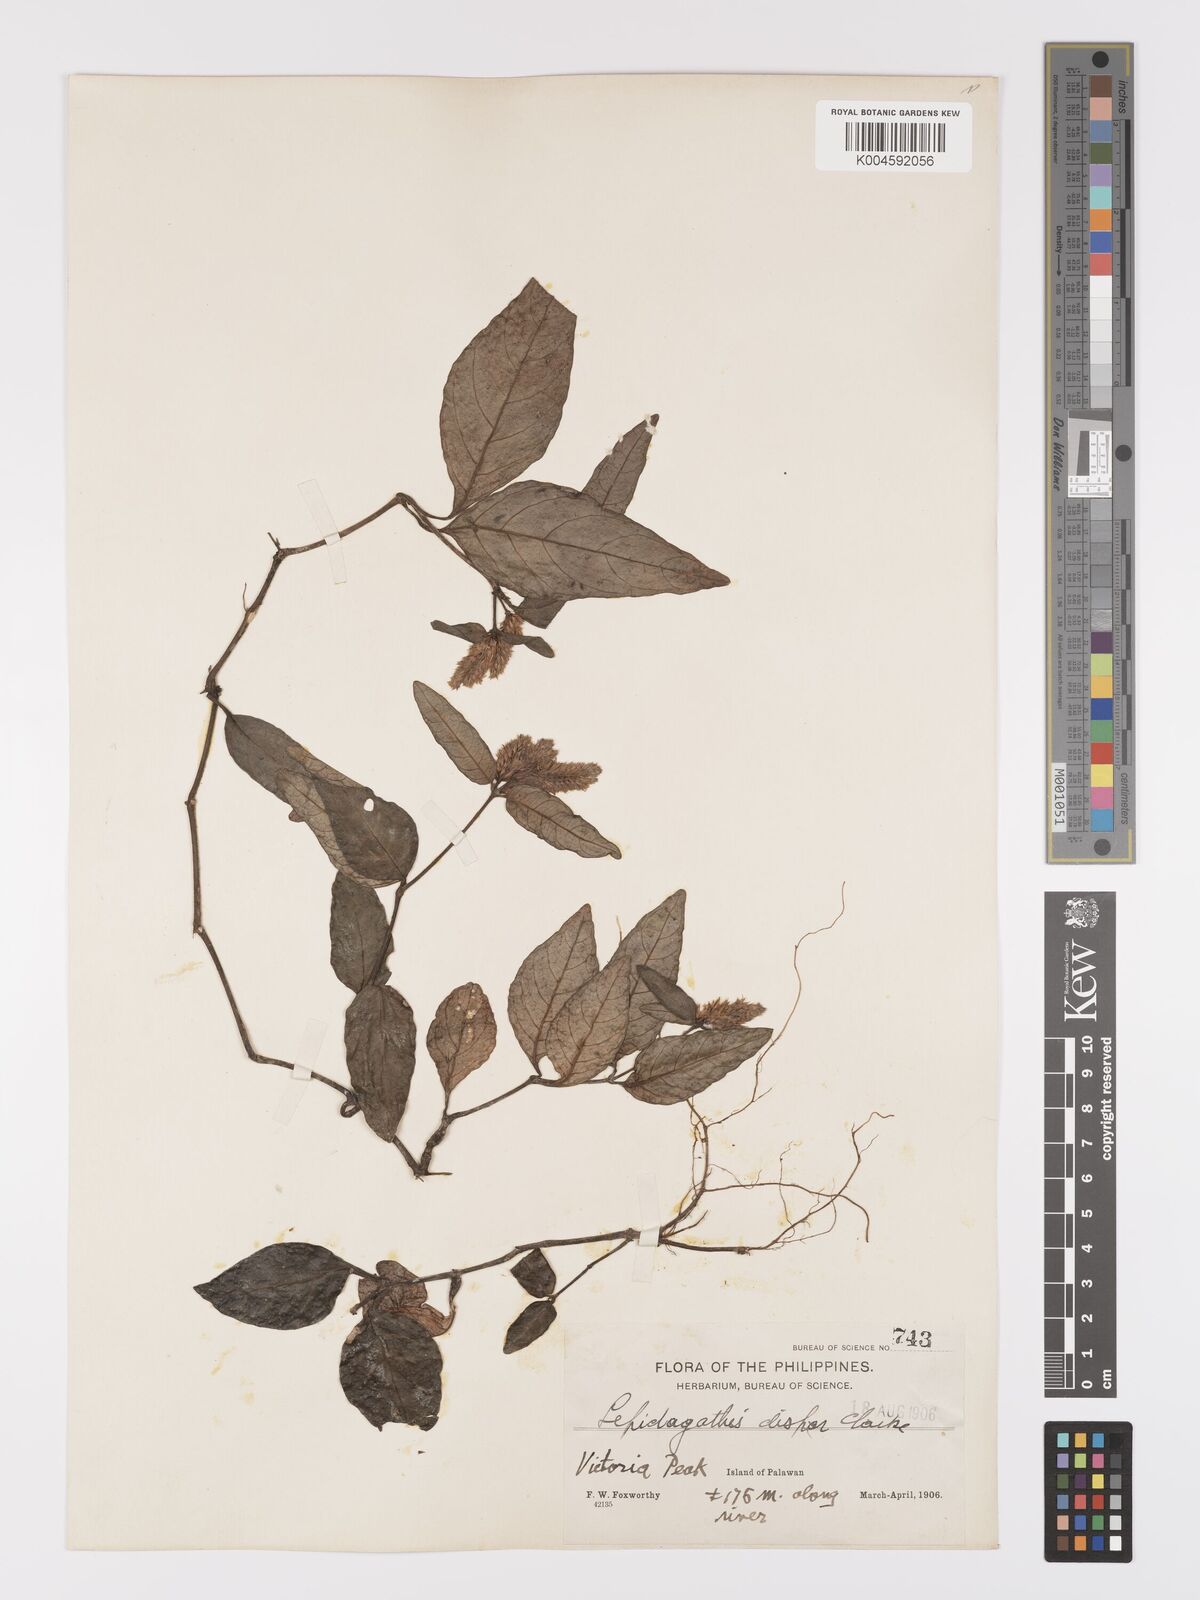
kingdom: Plantae
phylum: Tracheophyta
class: Magnoliopsida
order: Lamiales
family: Acanthaceae
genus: Lepidagathis
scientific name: Lepidagathis dispar
